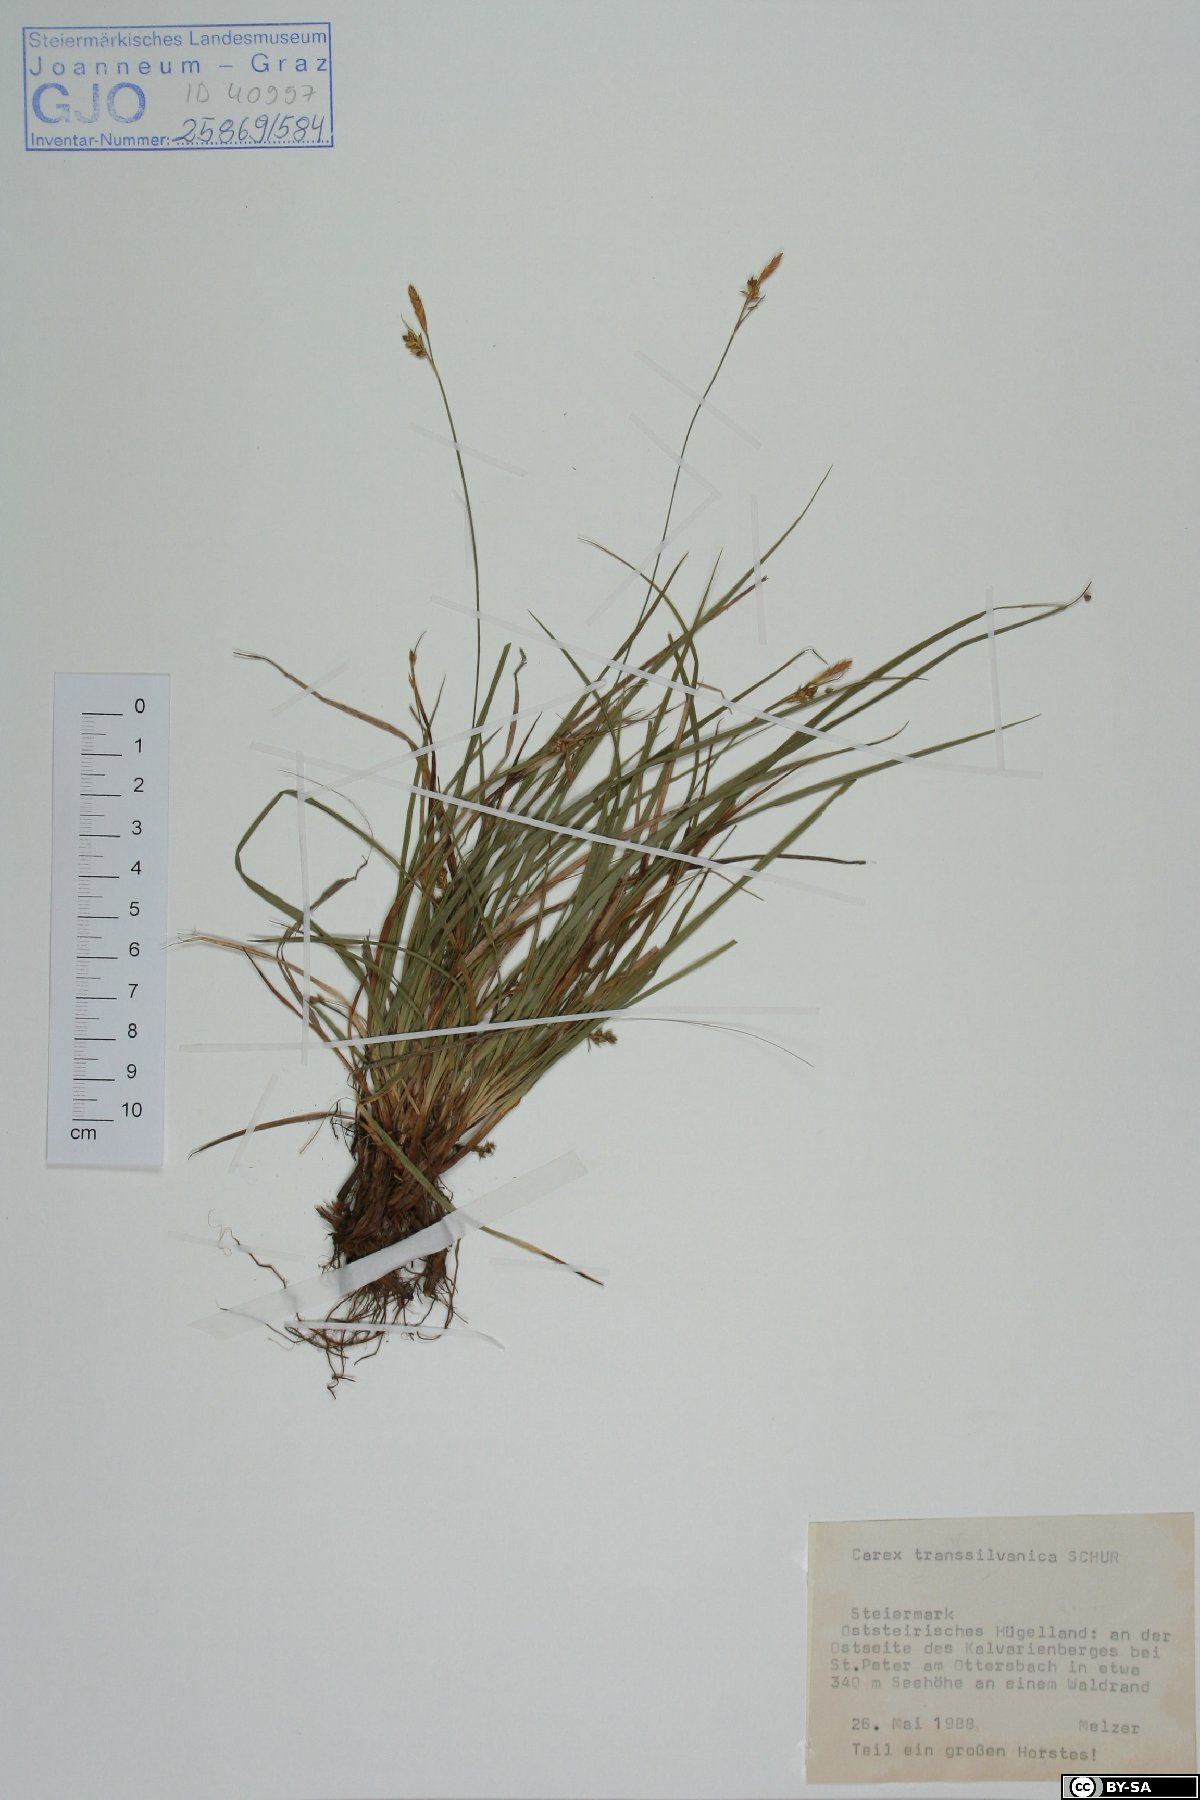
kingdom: Plantae
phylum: Tracheophyta
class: Liliopsida
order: Poales
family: Cyperaceae
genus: Carex
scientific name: Carex depressa
